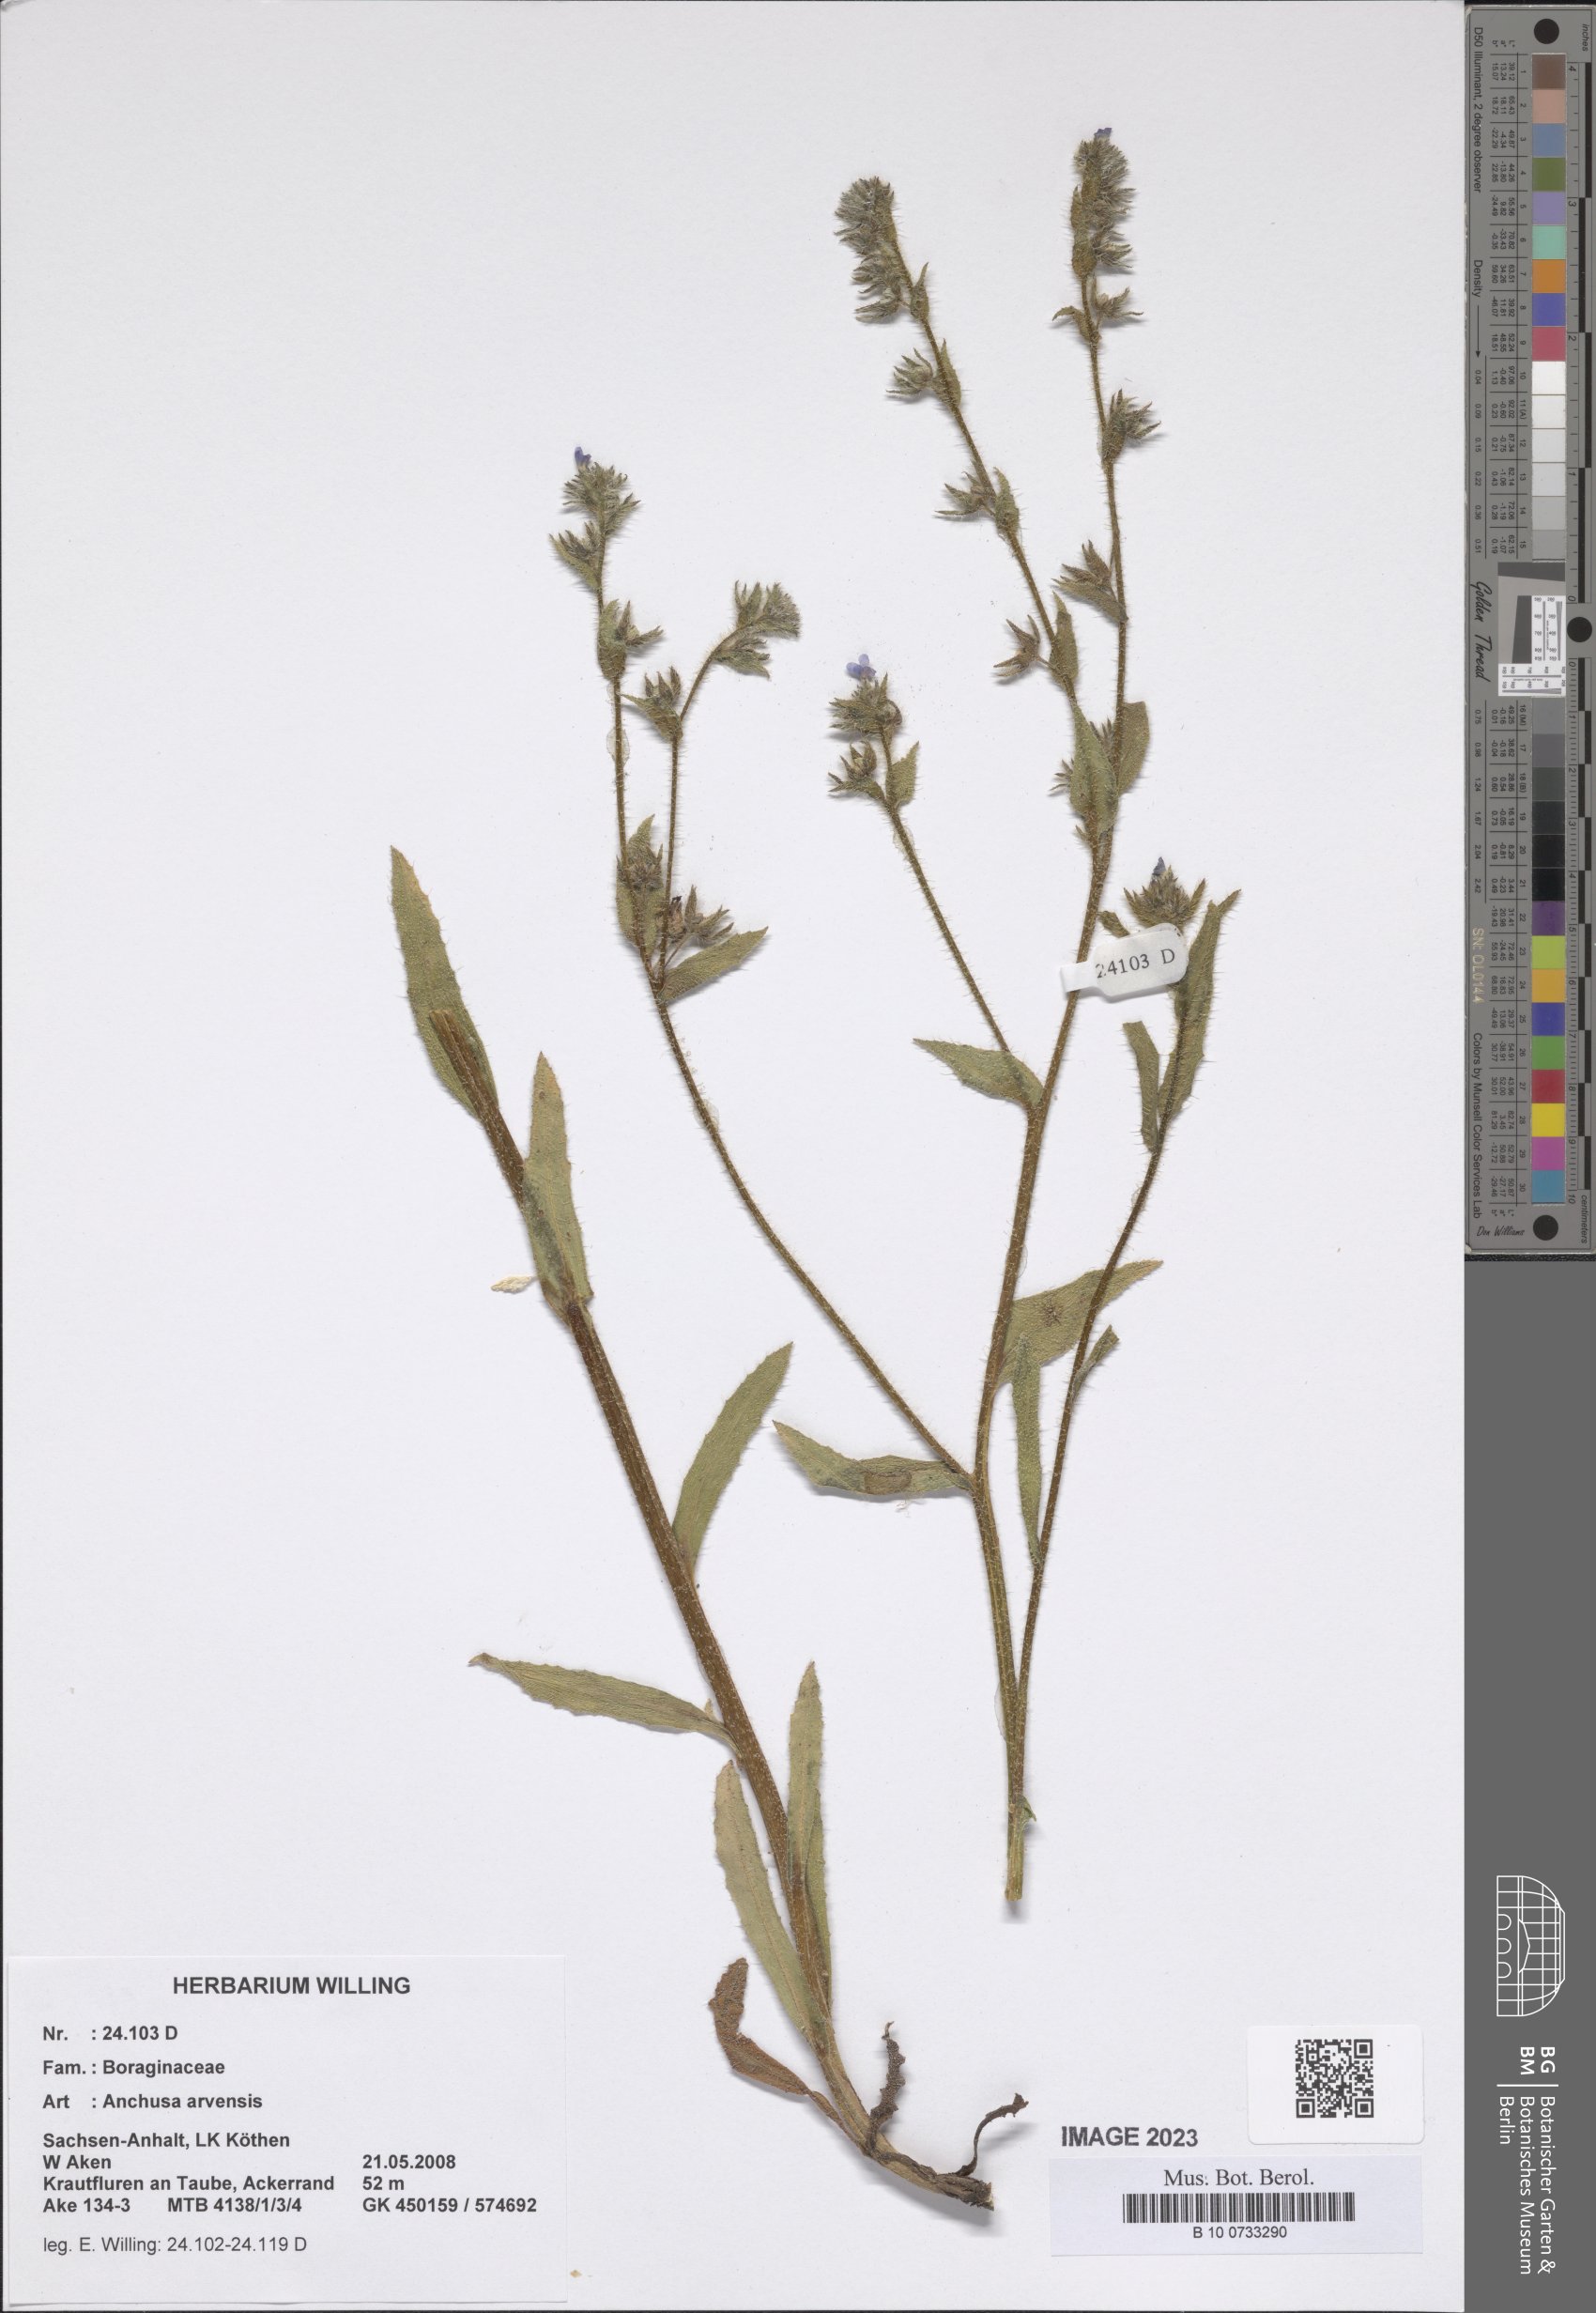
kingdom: Plantae
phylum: Tracheophyta
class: Magnoliopsida
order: Boraginales
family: Boraginaceae
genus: Lycopsis
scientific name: Lycopsis arvensis
